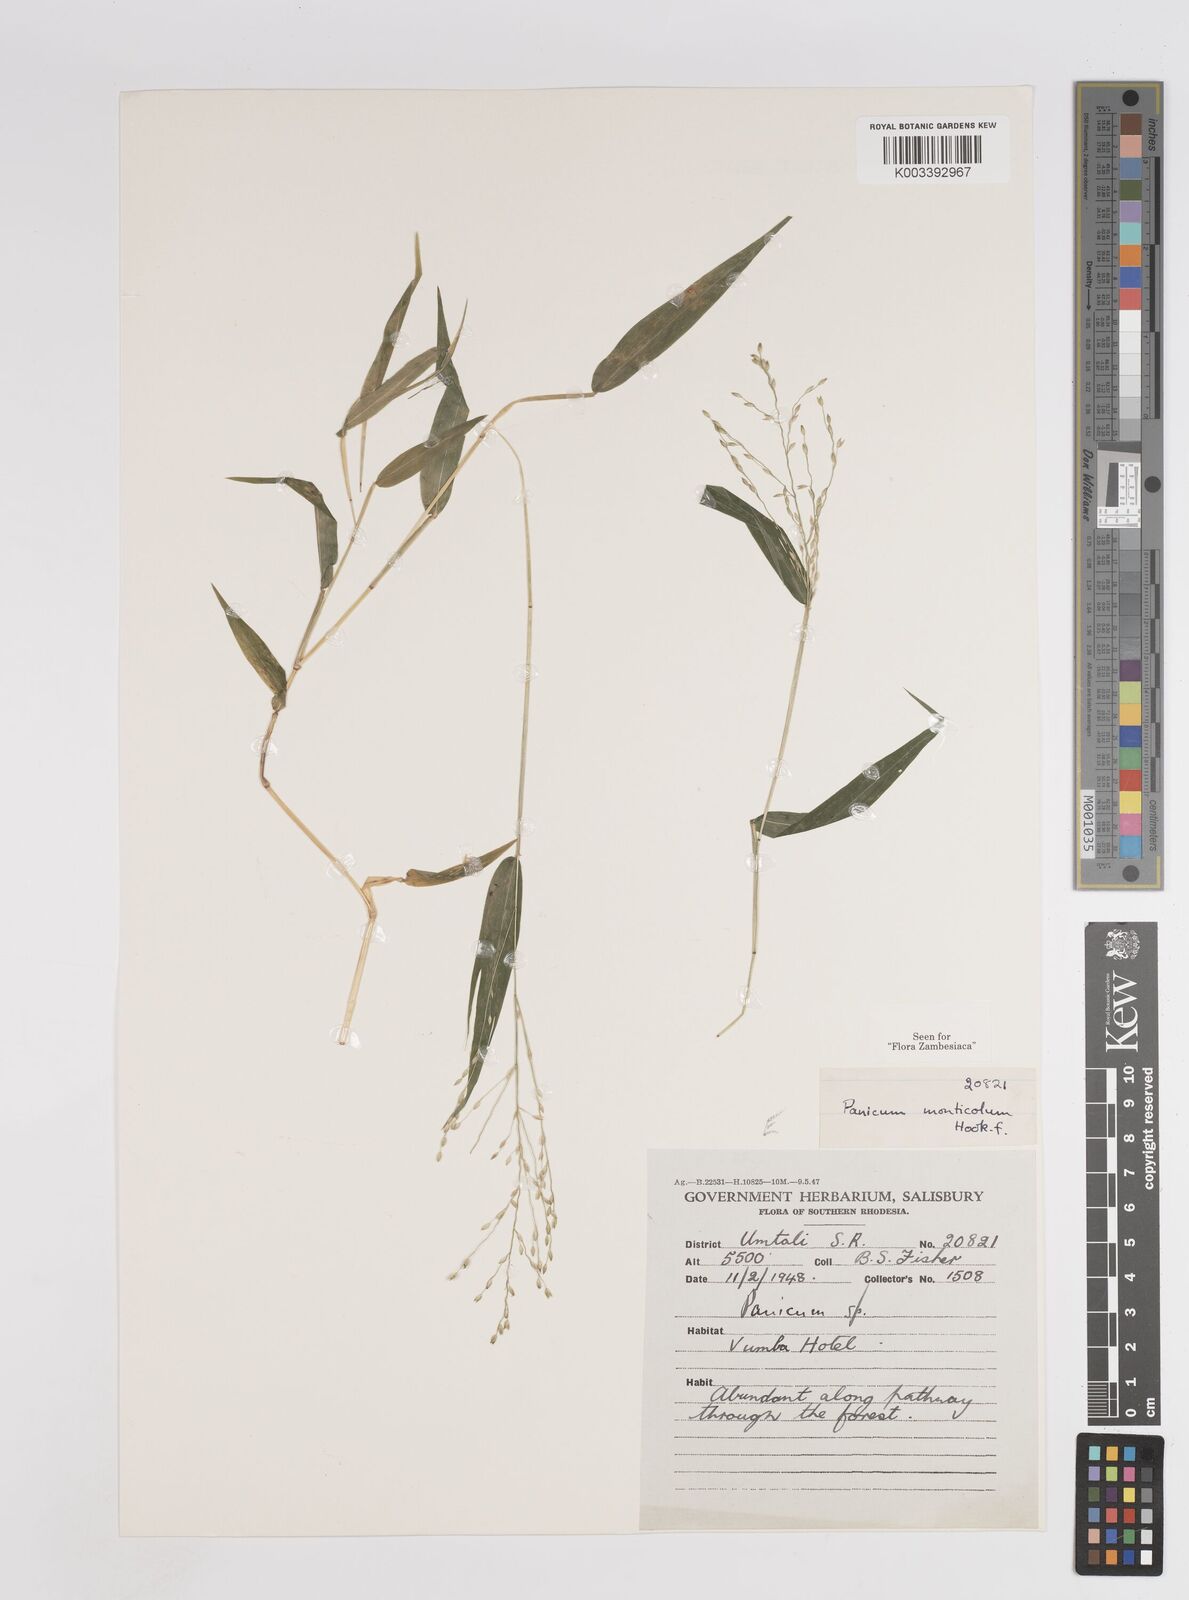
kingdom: Plantae
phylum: Tracheophyta
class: Liliopsida
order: Poales
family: Poaceae
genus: Panicum
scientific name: Panicum monticola
